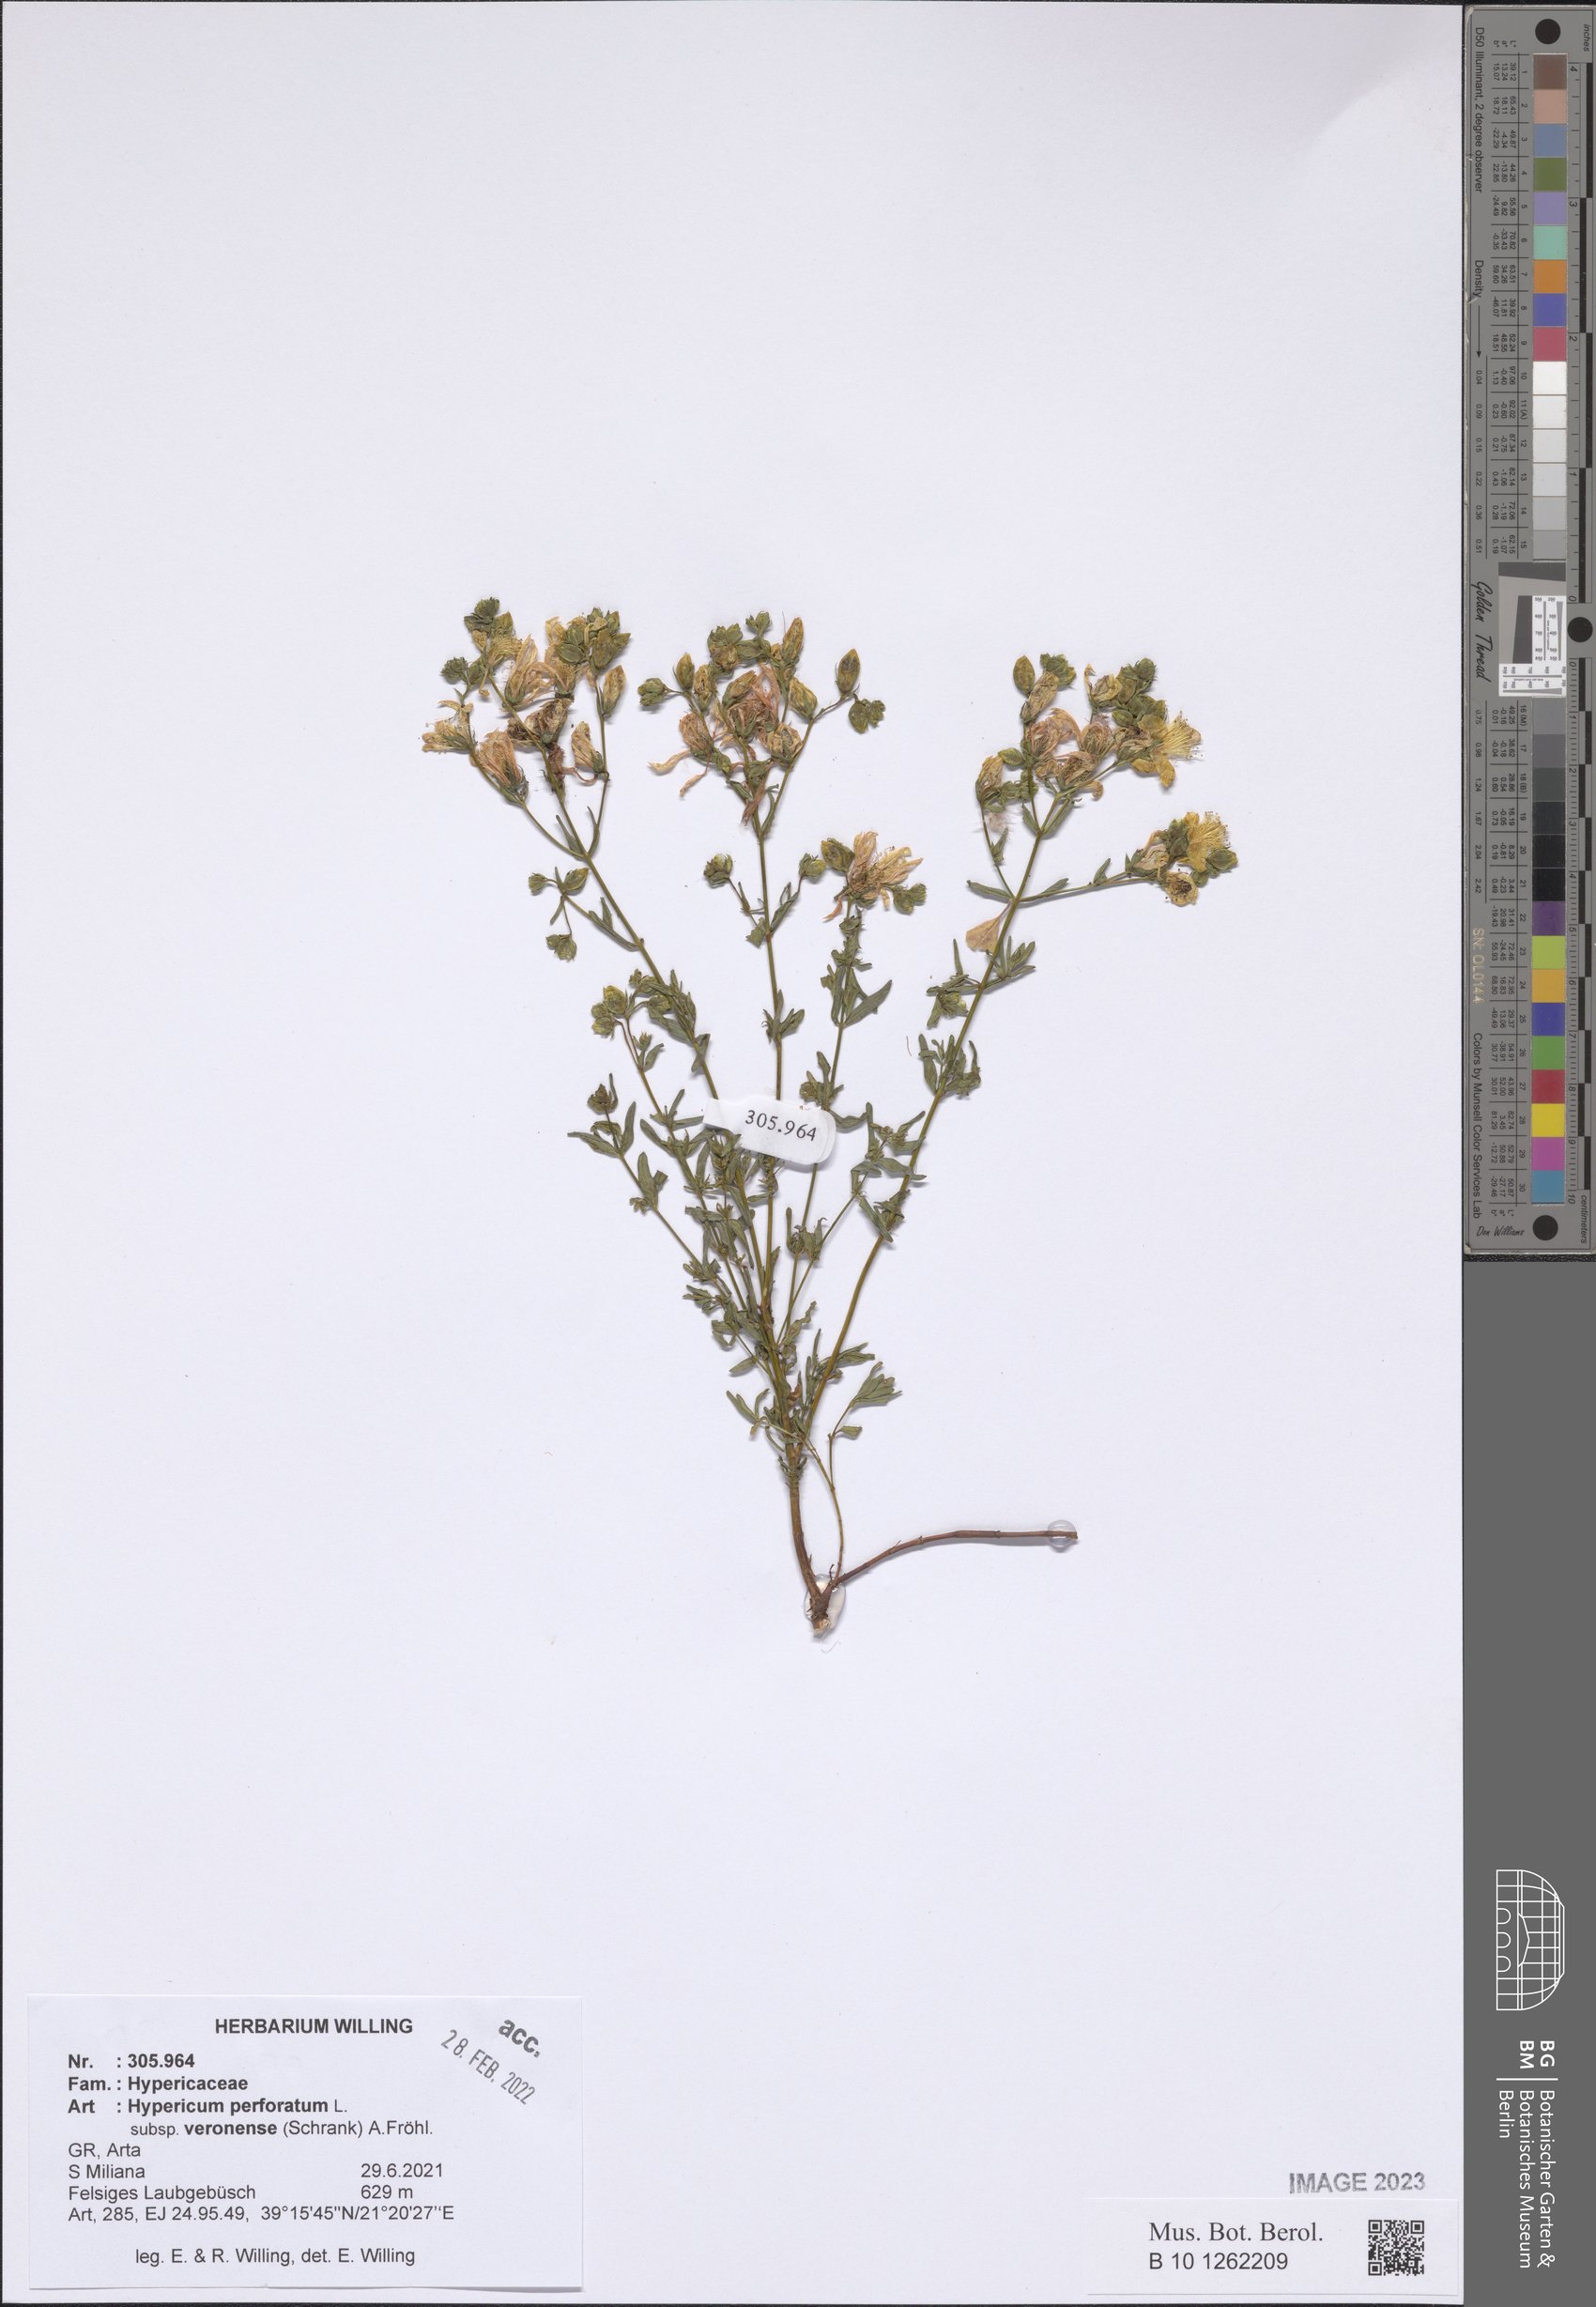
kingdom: Plantae
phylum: Tracheophyta
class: Magnoliopsida
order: Malpighiales
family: Hypericaceae
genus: Hypericum
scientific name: Hypericum veronense
